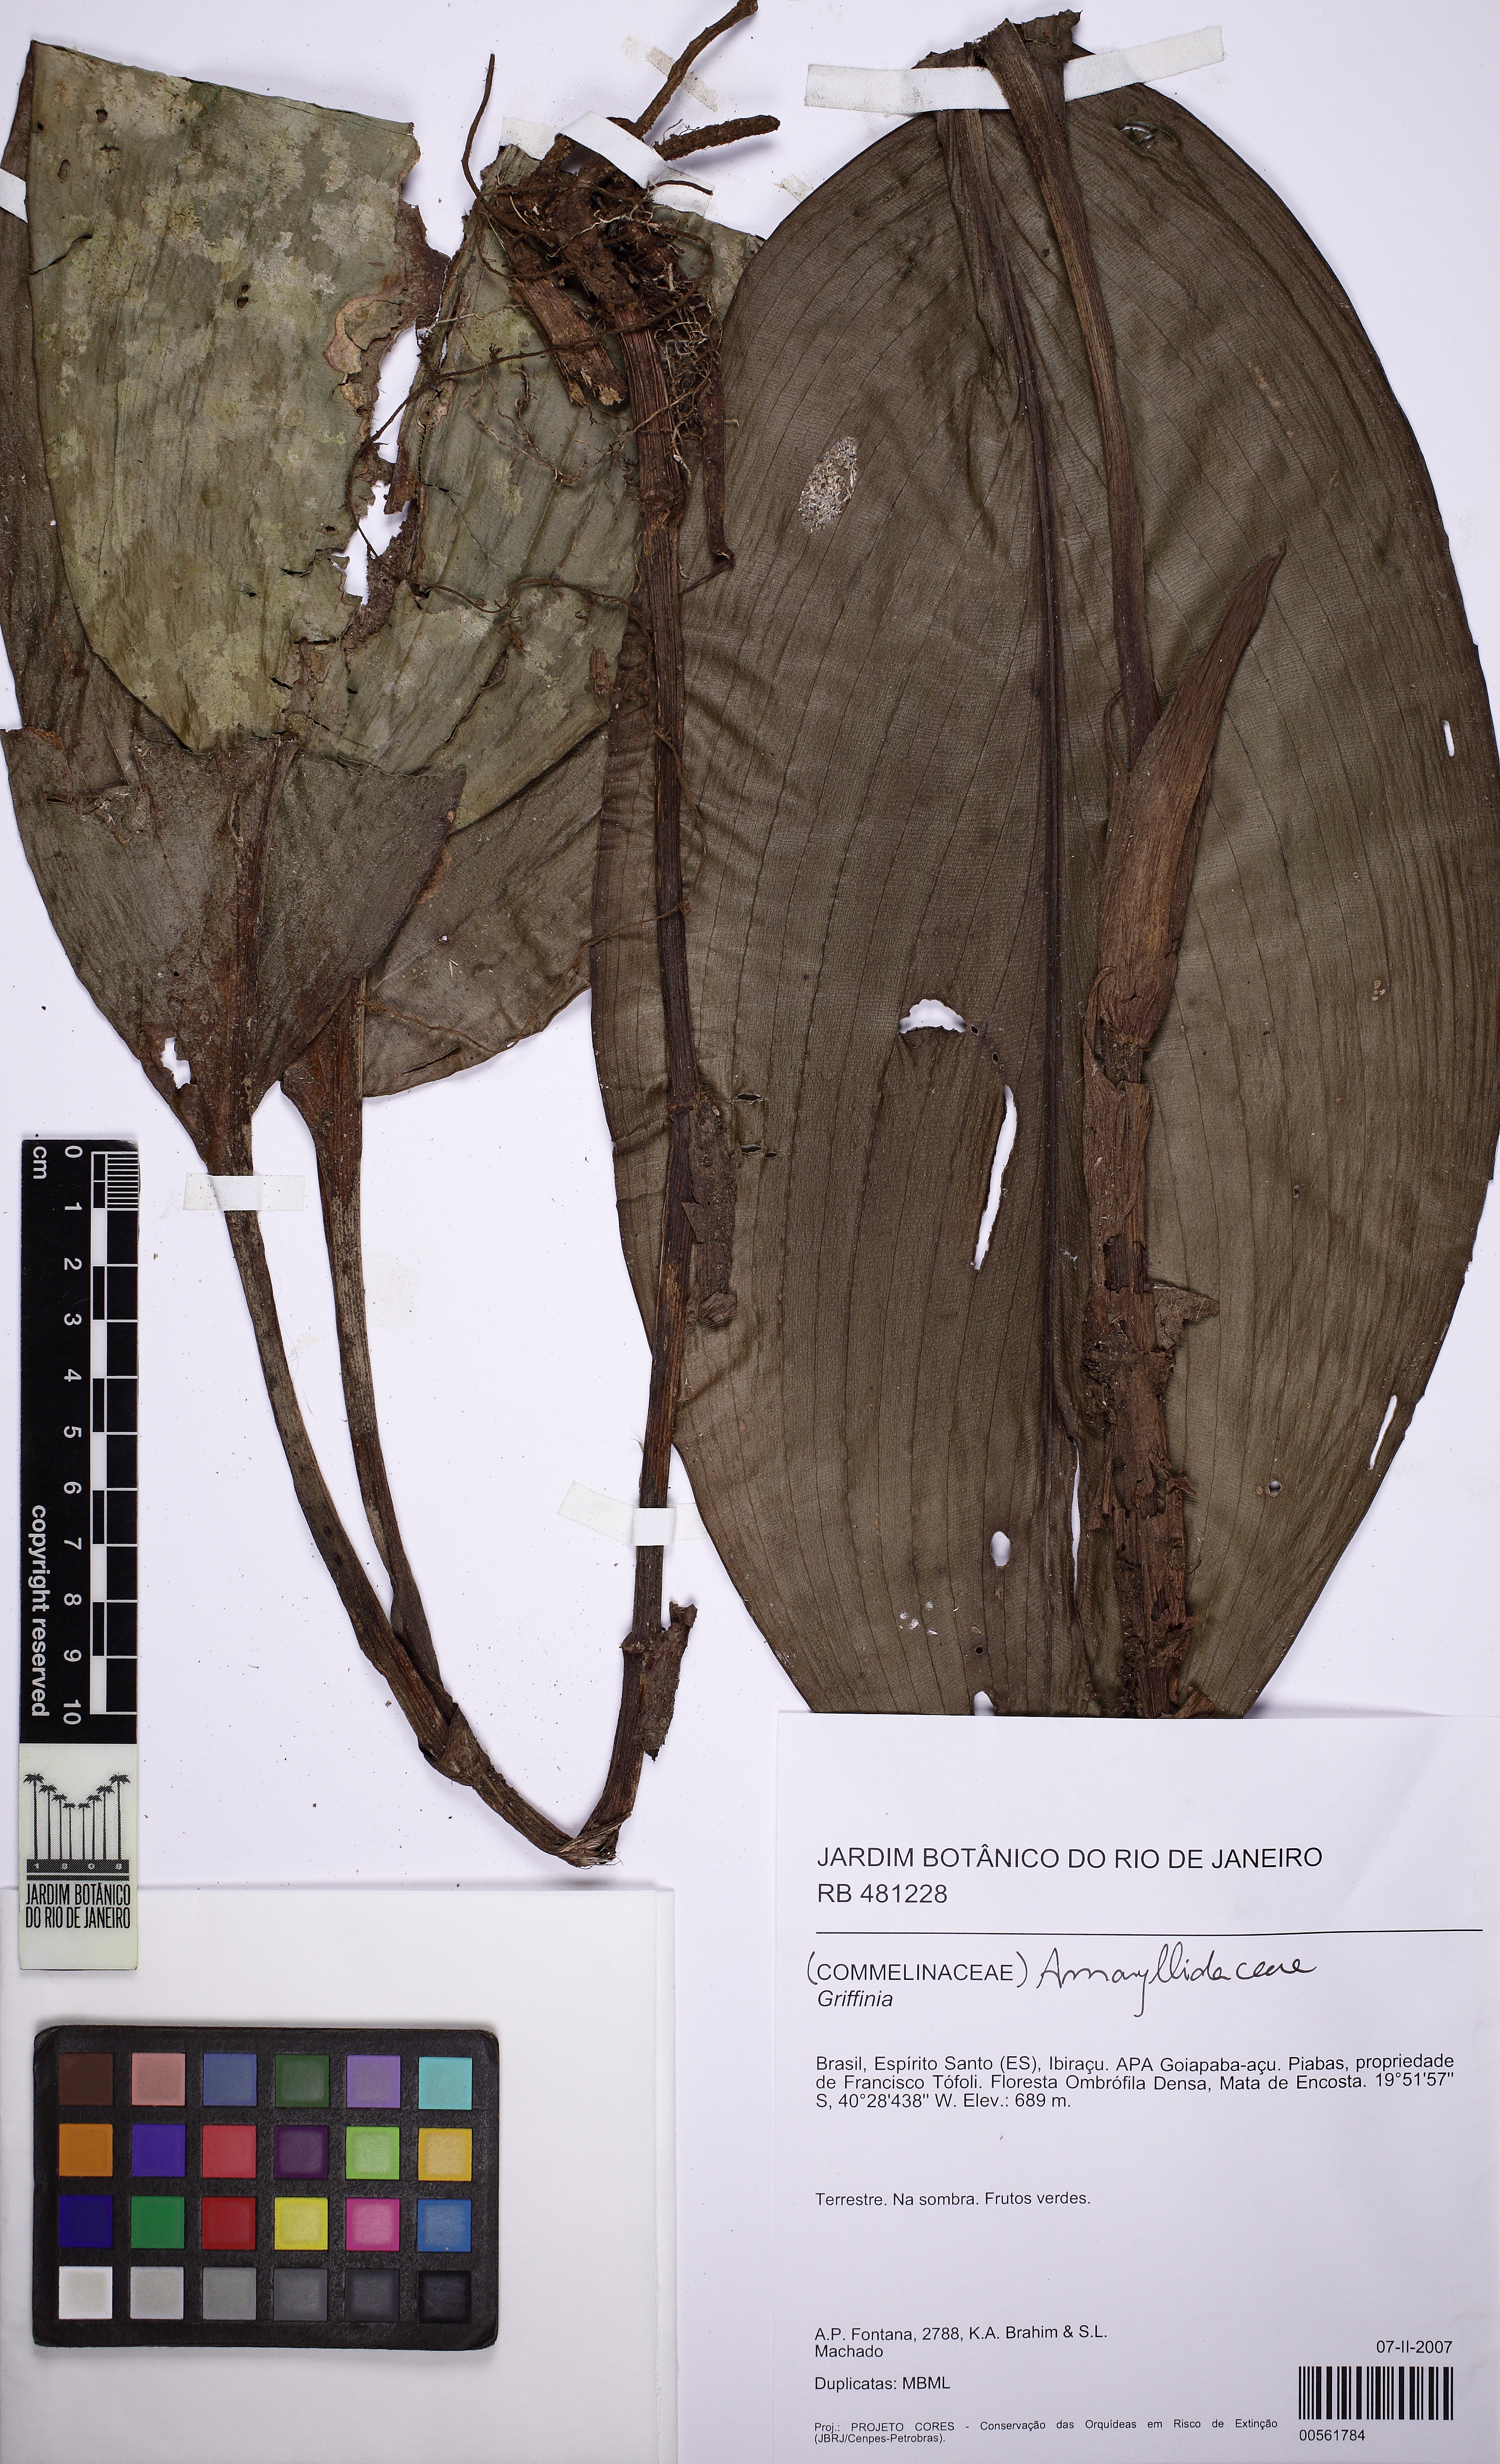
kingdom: Plantae
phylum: Tracheophyta
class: Liliopsida
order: Zingiberales
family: Marantaceae
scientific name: Marantaceae
